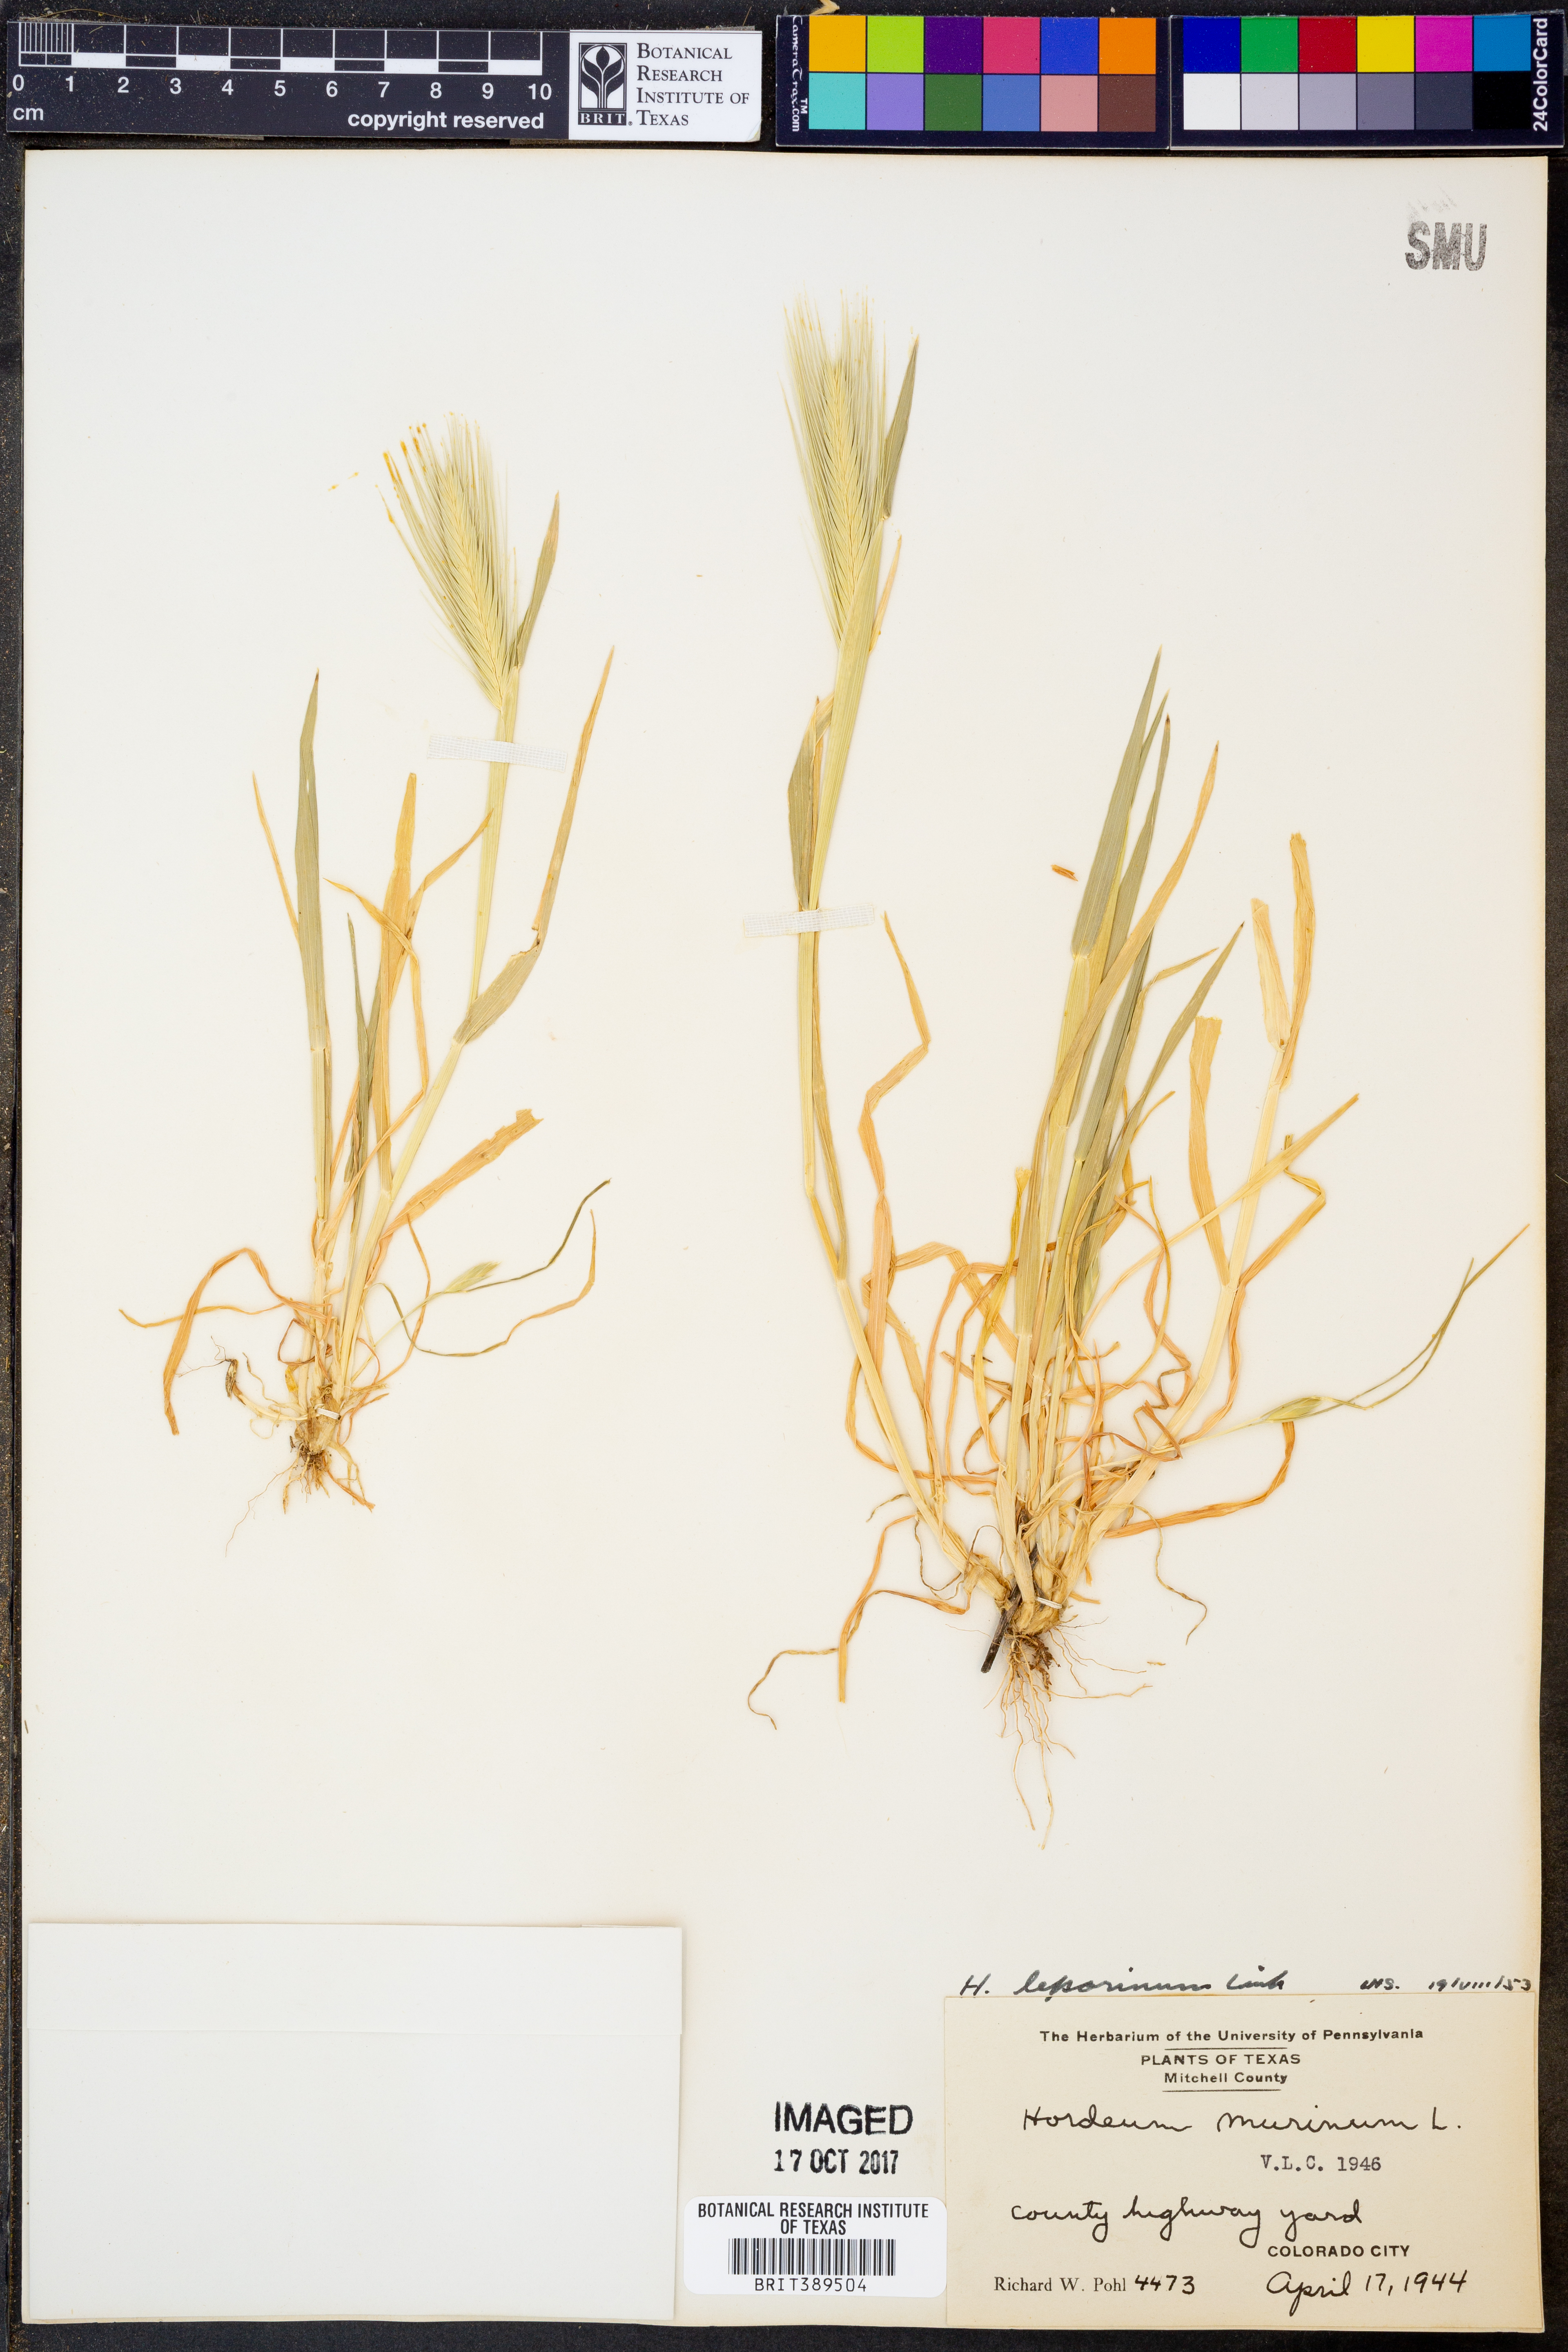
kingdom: Plantae
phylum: Tracheophyta
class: Liliopsida
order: Poales
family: Poaceae
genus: Hordeum
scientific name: Hordeum murinum
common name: Wall barley
